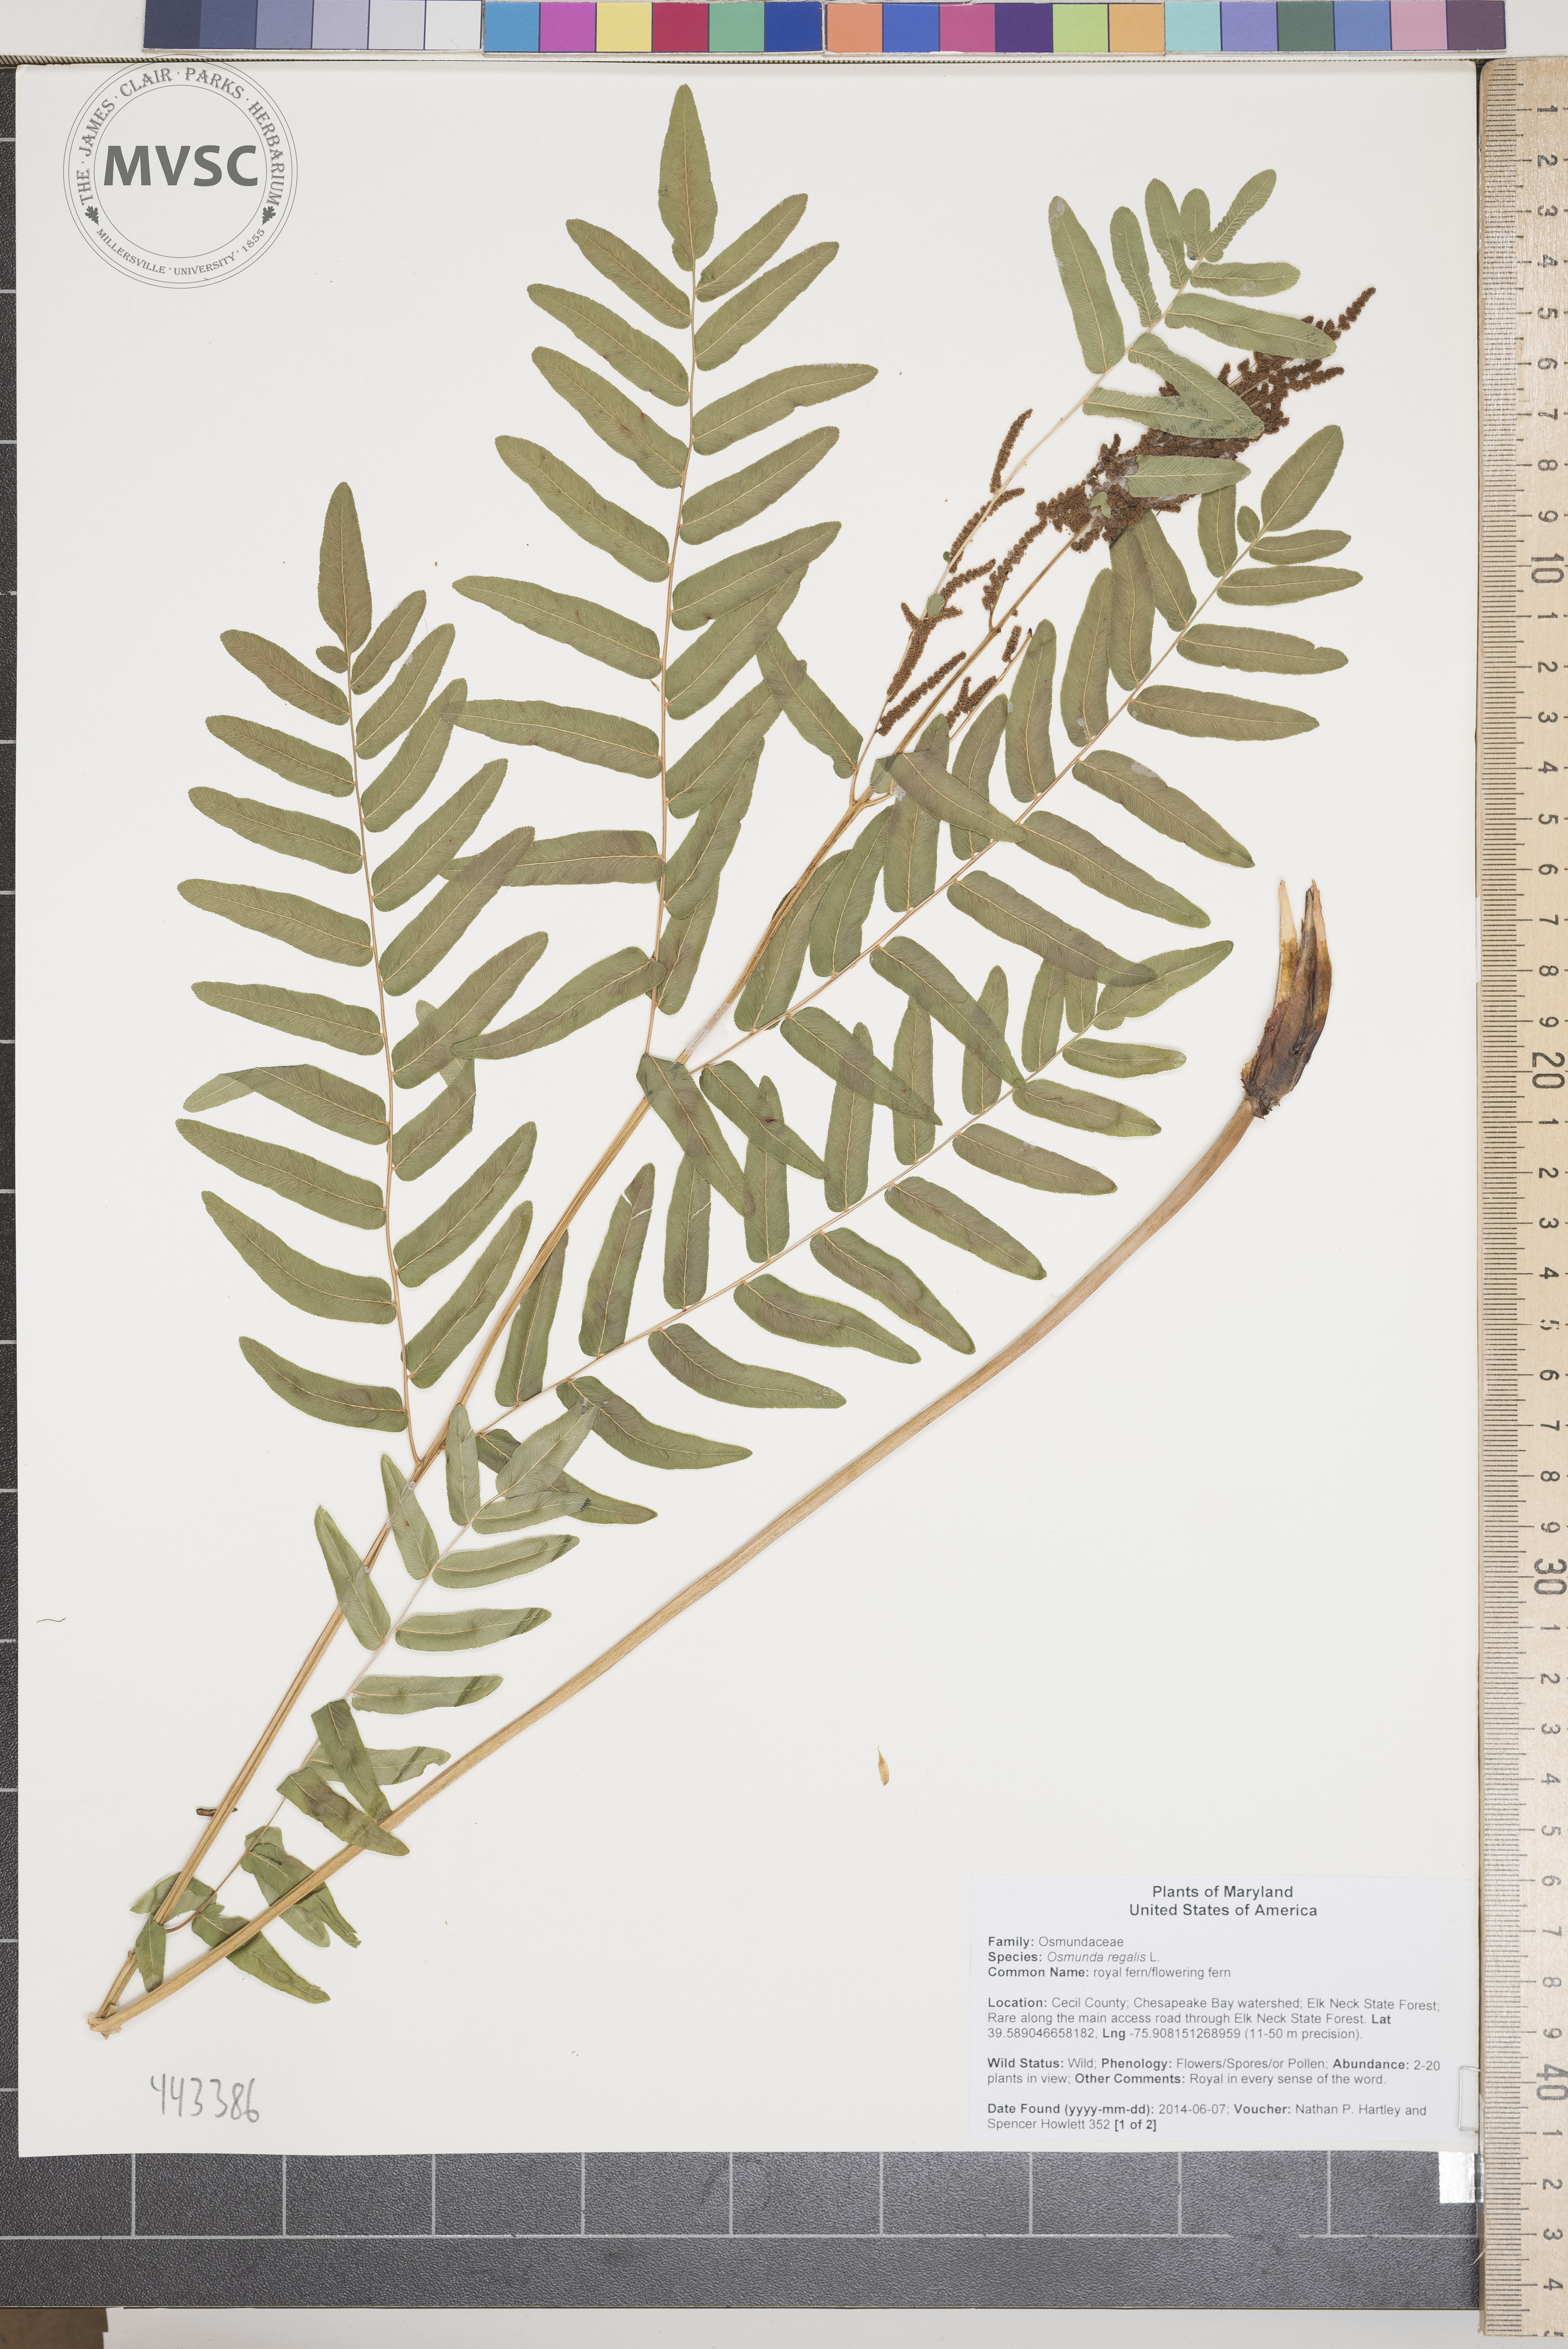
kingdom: Plantae
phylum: Tracheophyta
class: Polypodiopsida
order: Osmundales
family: Osmundaceae
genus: Osmunda
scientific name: Osmunda regalis
